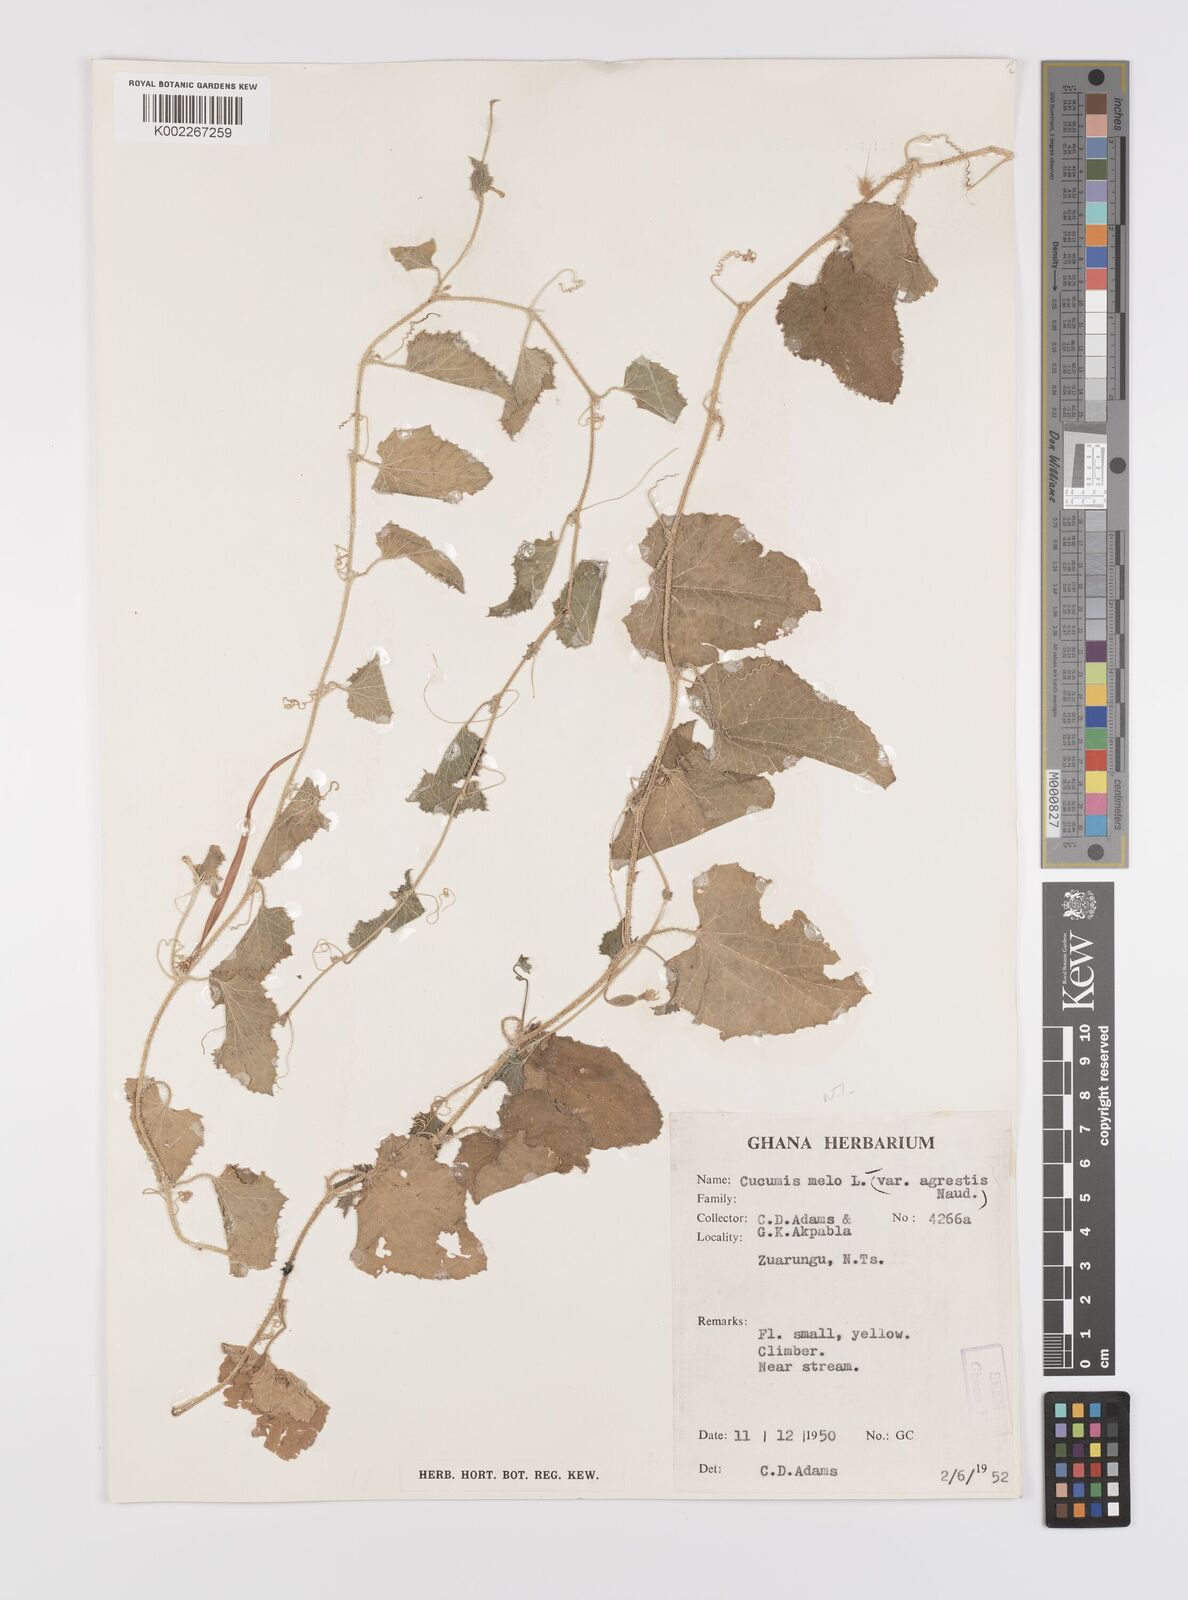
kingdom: Plantae
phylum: Tracheophyta
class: Magnoliopsida
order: Cucurbitales
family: Cucurbitaceae
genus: Cucumis
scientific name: Cucumis melo
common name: Melon
